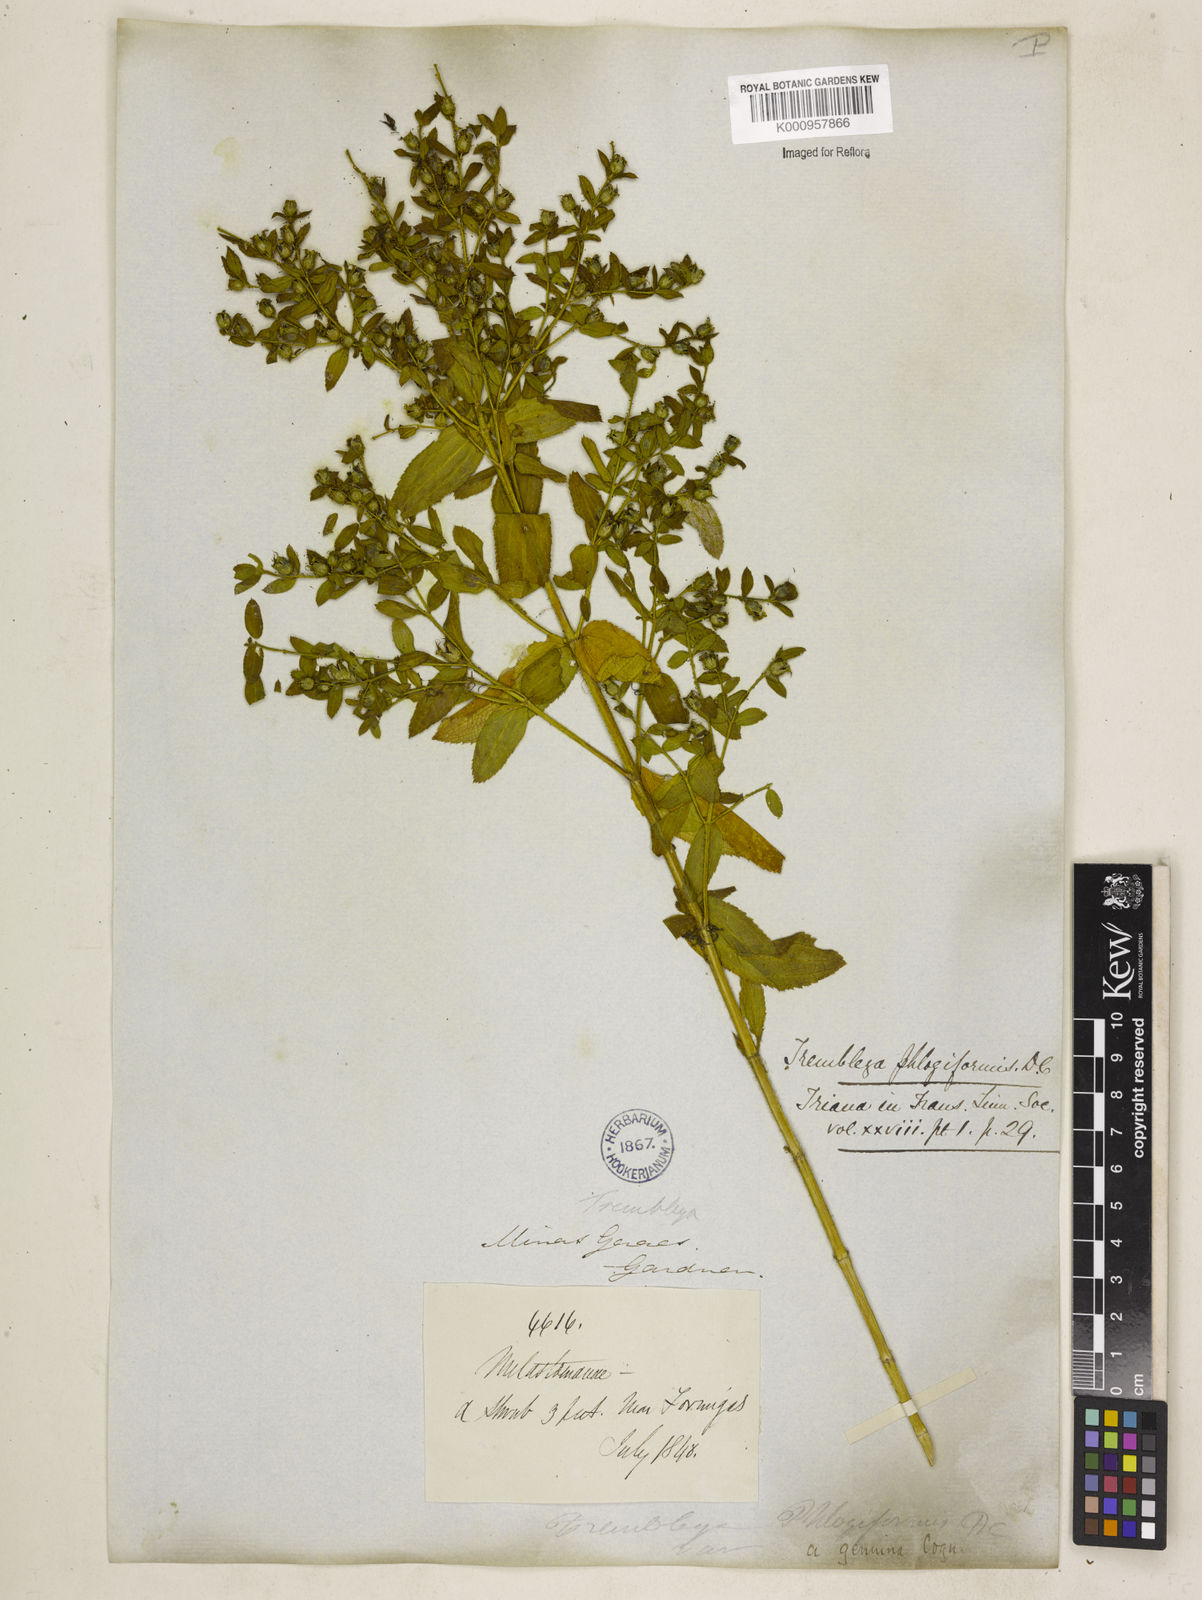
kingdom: Plantae
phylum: Tracheophyta
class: Magnoliopsida
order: Myrtales
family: Melastomataceae
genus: Microlicia
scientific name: Microlicia phlogiformis
